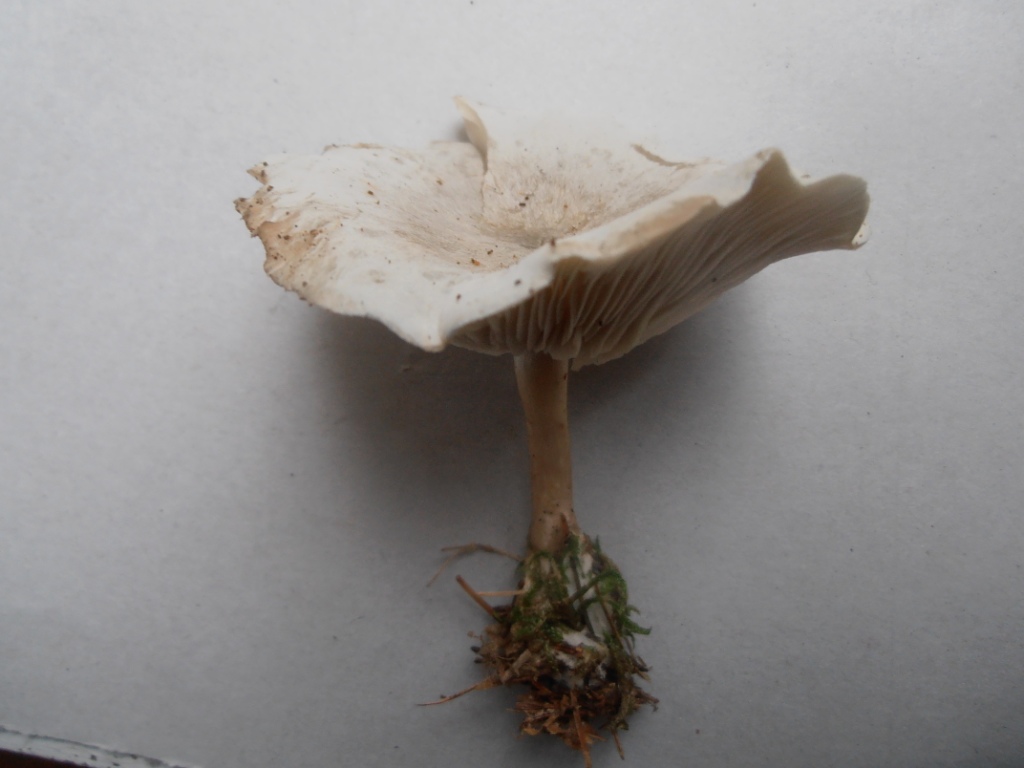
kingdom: Fungi
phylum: Basidiomycota
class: Agaricomycetes
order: Agaricales
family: Tricholomataceae
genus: Clitocybe
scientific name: Clitocybe odora
